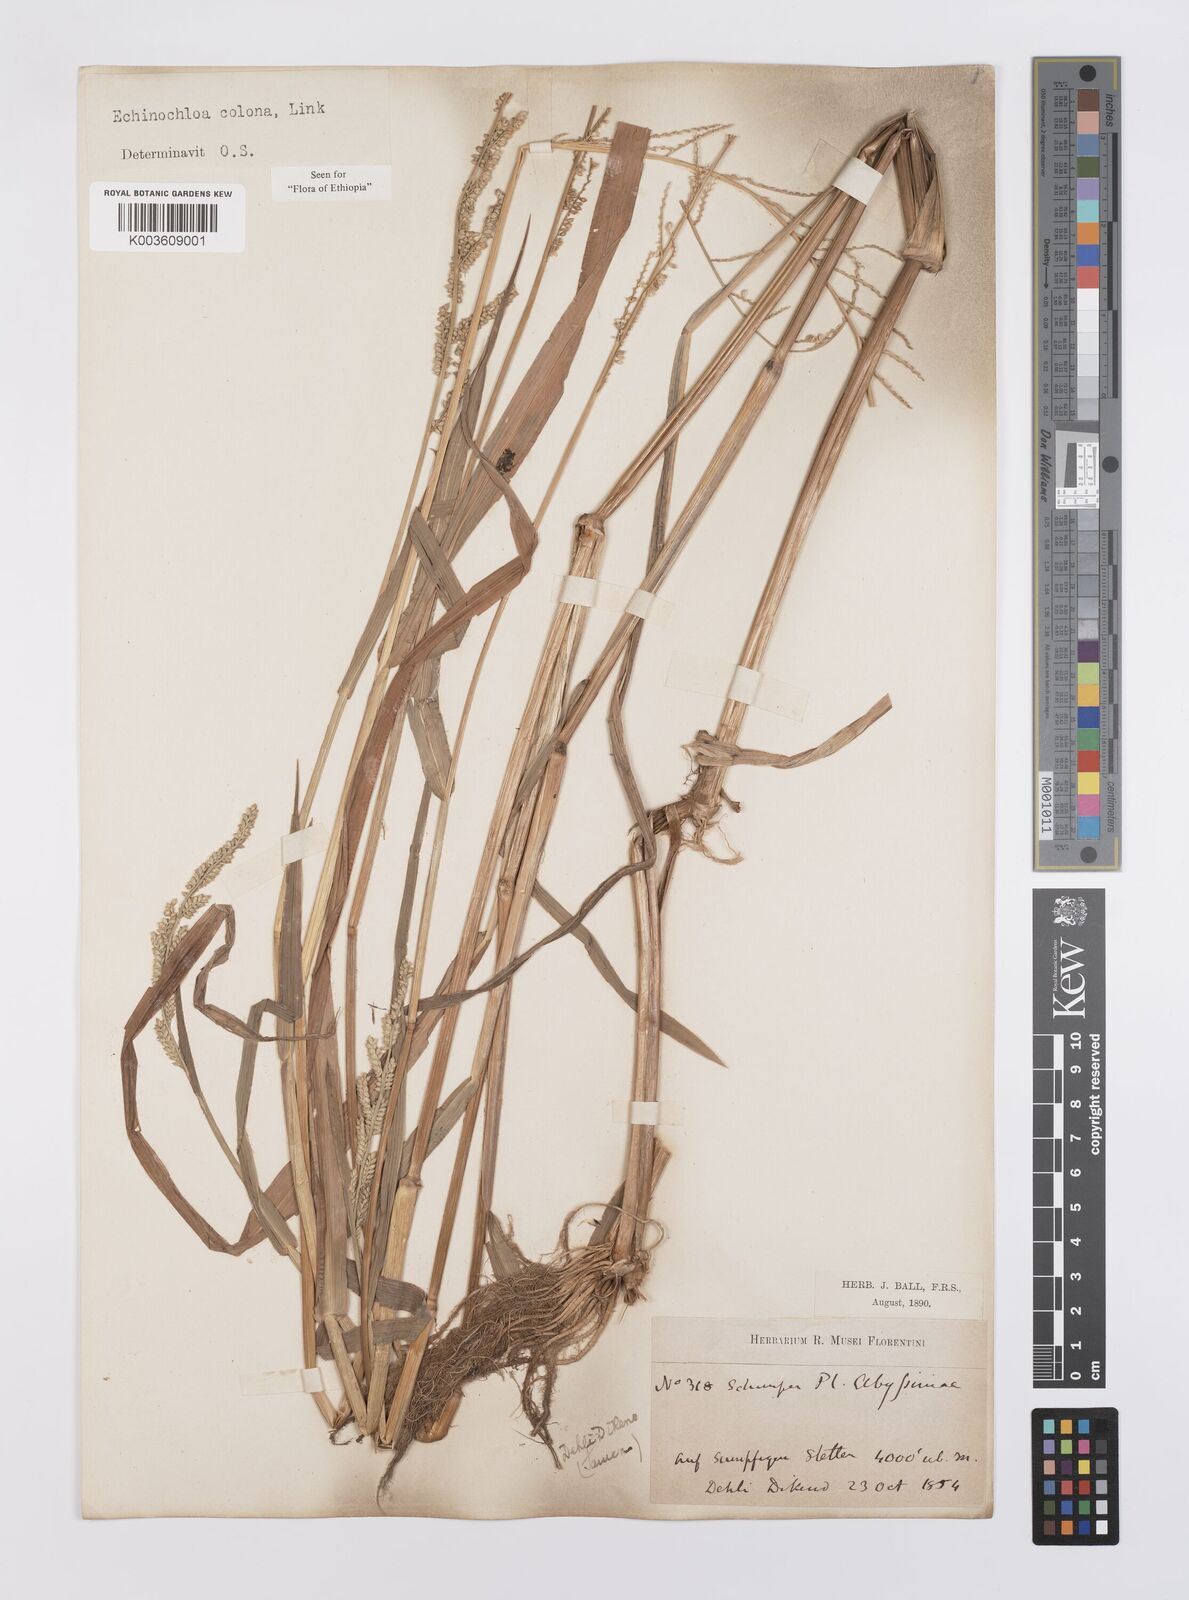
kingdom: Plantae
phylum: Tracheophyta
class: Liliopsida
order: Poales
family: Poaceae
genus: Echinochloa
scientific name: Echinochloa colonum
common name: Jungle rice
